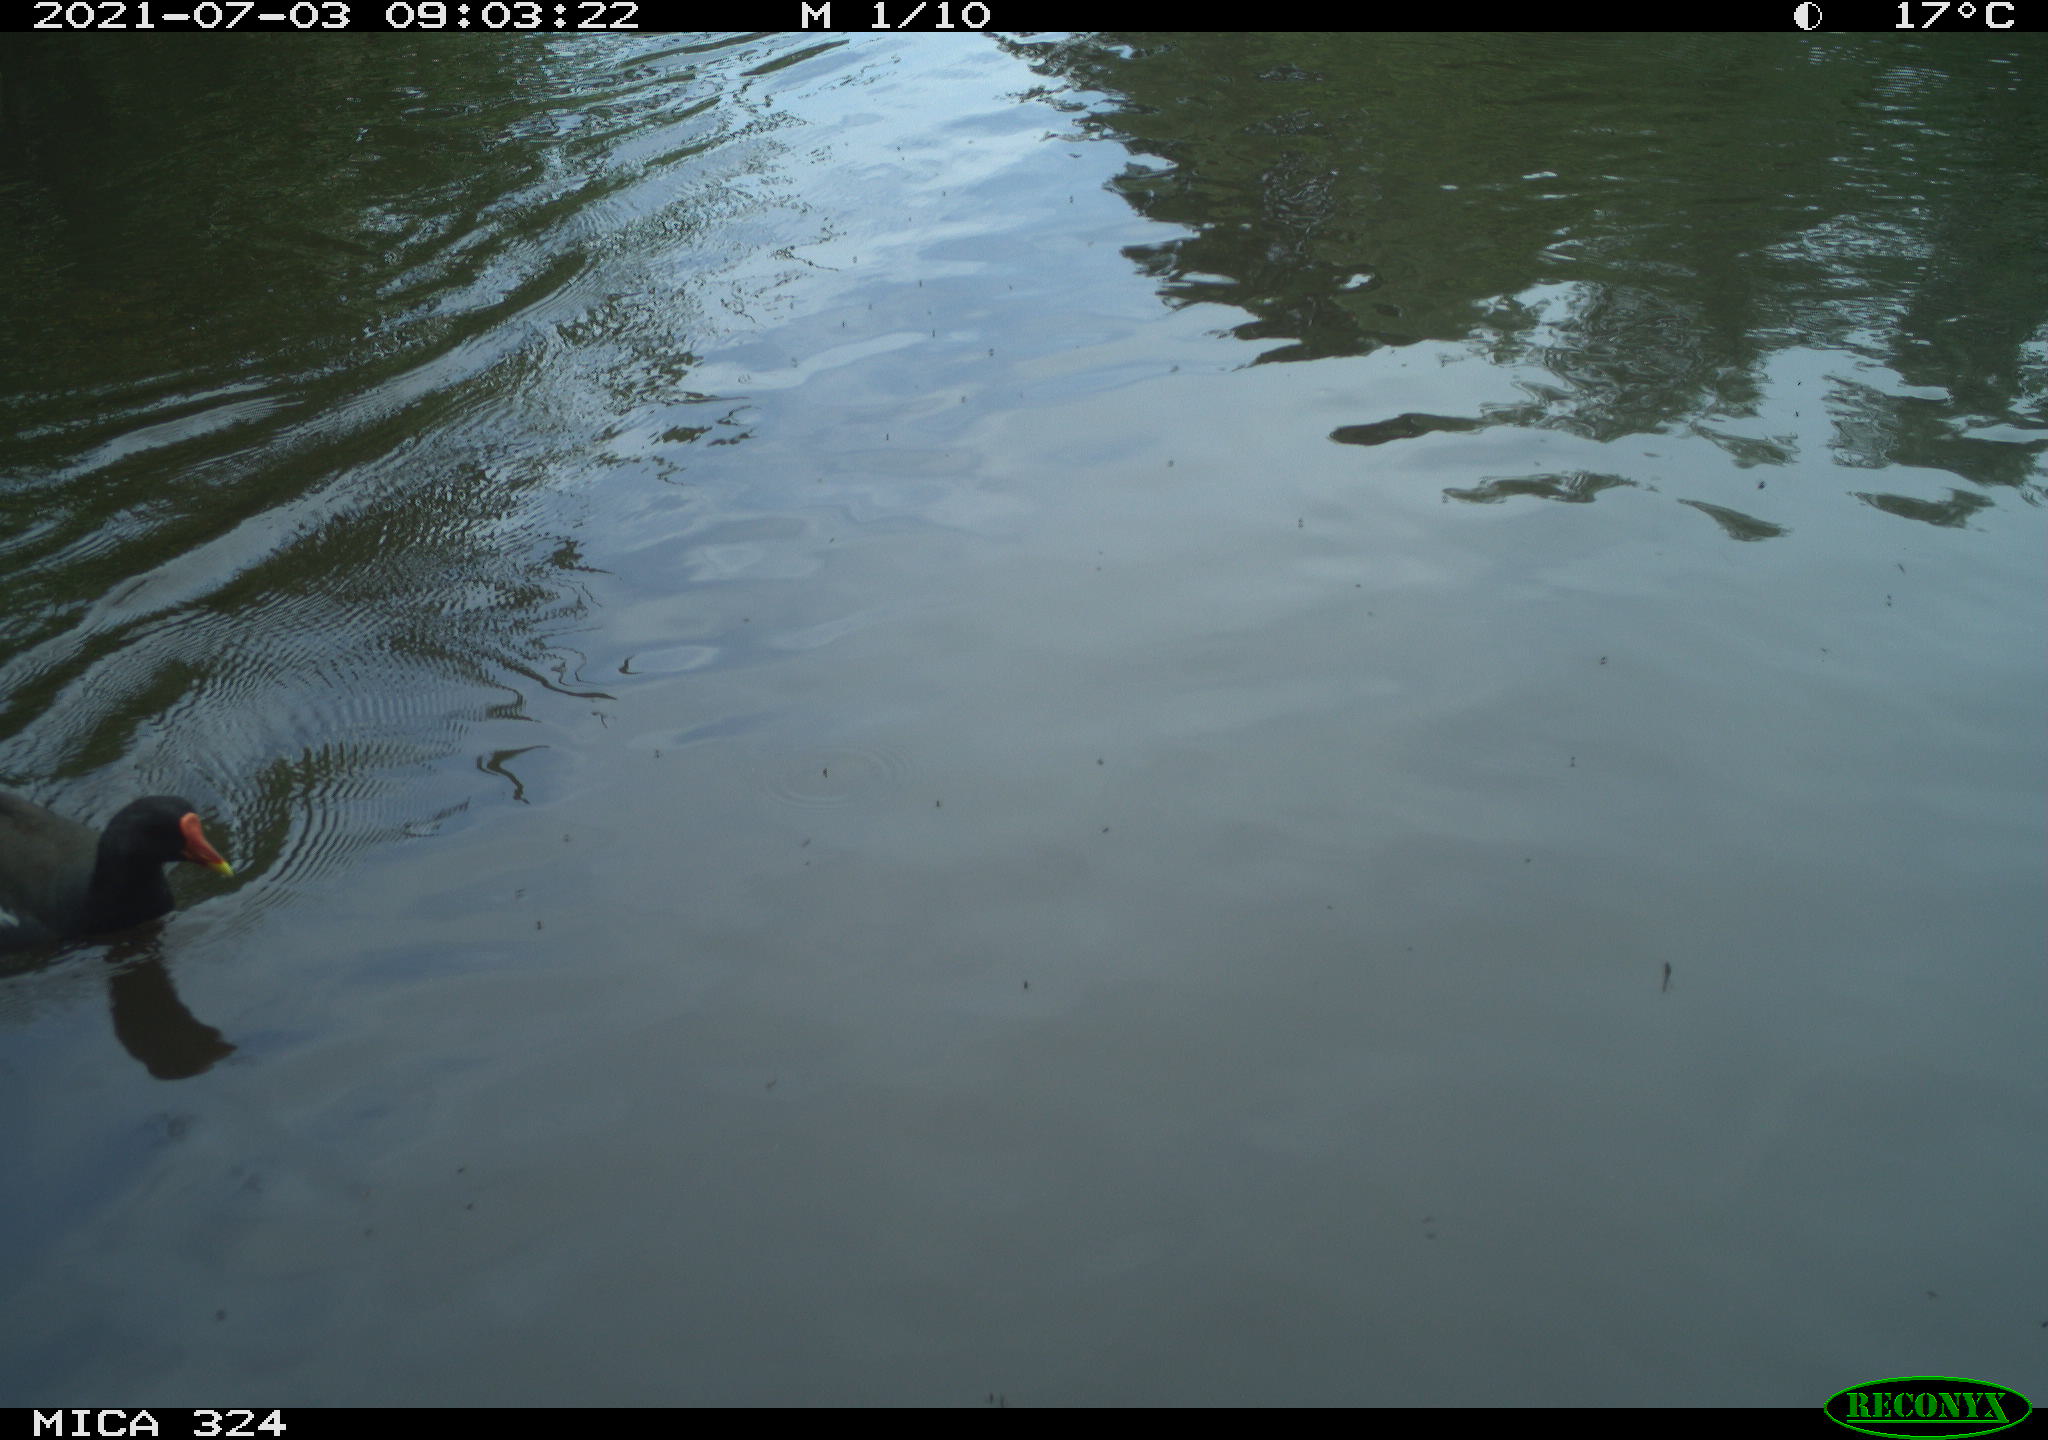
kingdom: Animalia
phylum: Chordata
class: Aves
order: Gruiformes
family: Rallidae
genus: Gallinula
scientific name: Gallinula chloropus
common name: Common moorhen
